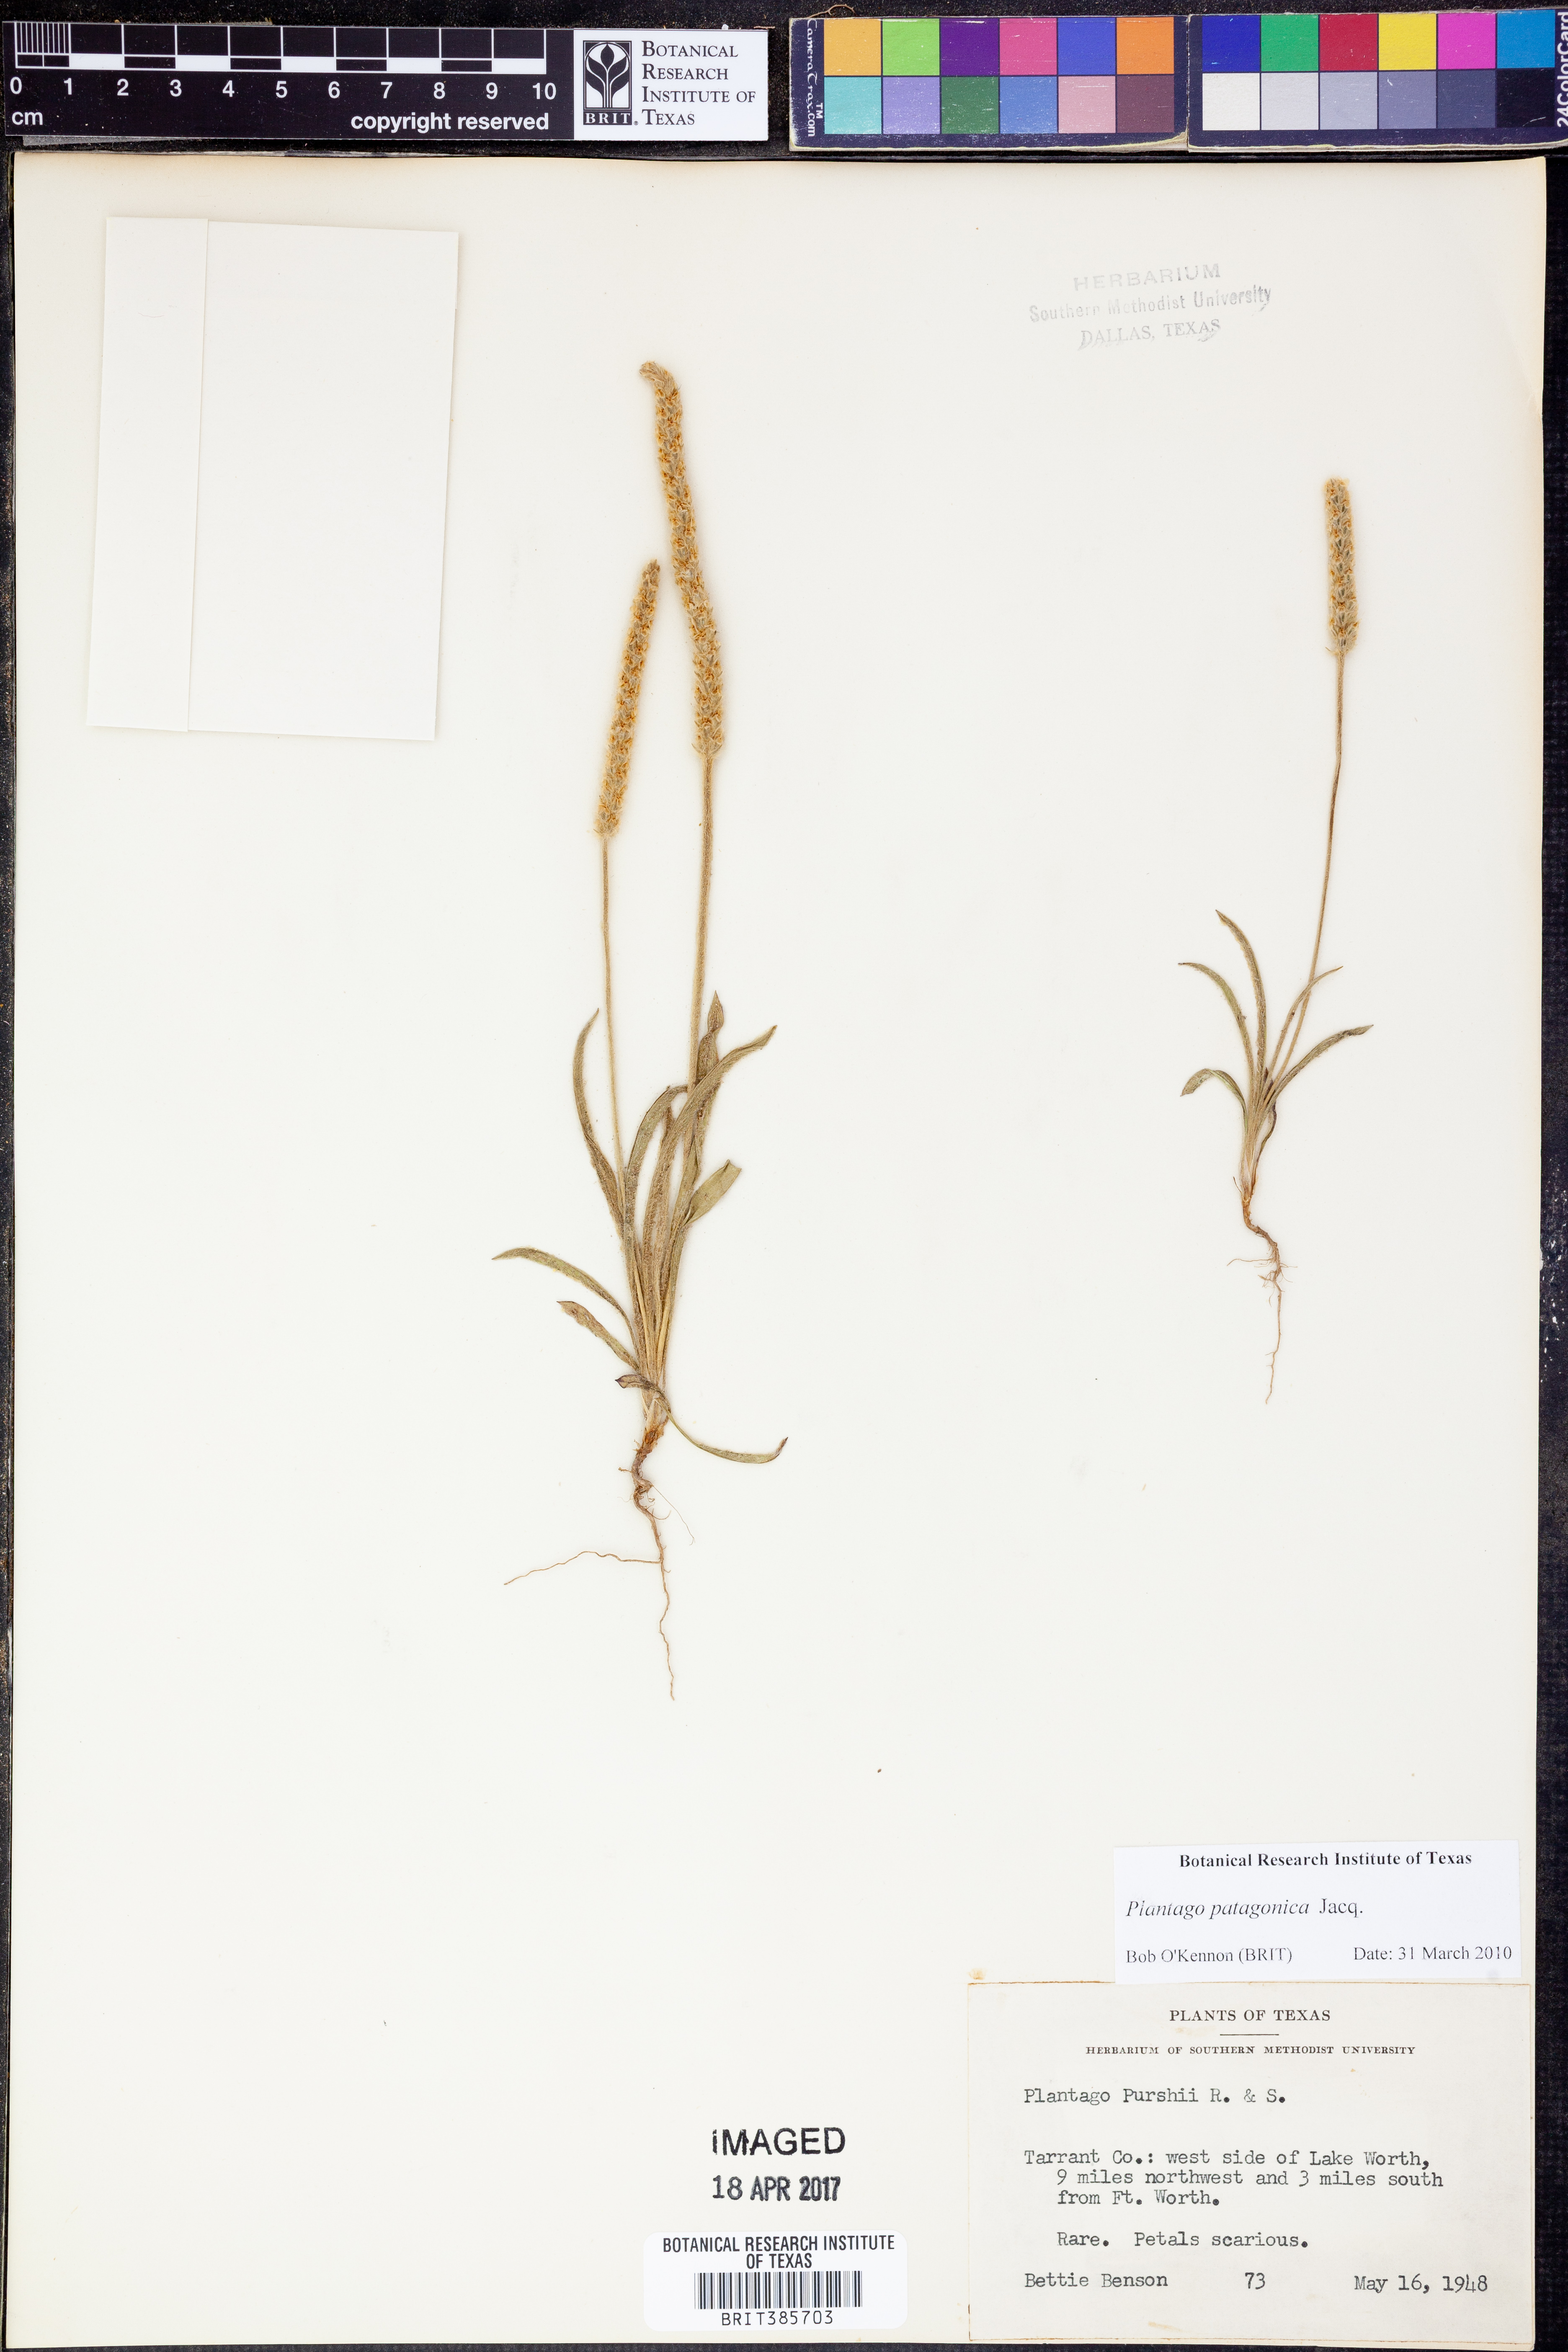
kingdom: Plantae
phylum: Tracheophyta
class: Magnoliopsida
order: Lamiales
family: Plantaginaceae
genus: Plantago
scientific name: Plantago patagonica
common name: Patagonia indian-wheat
